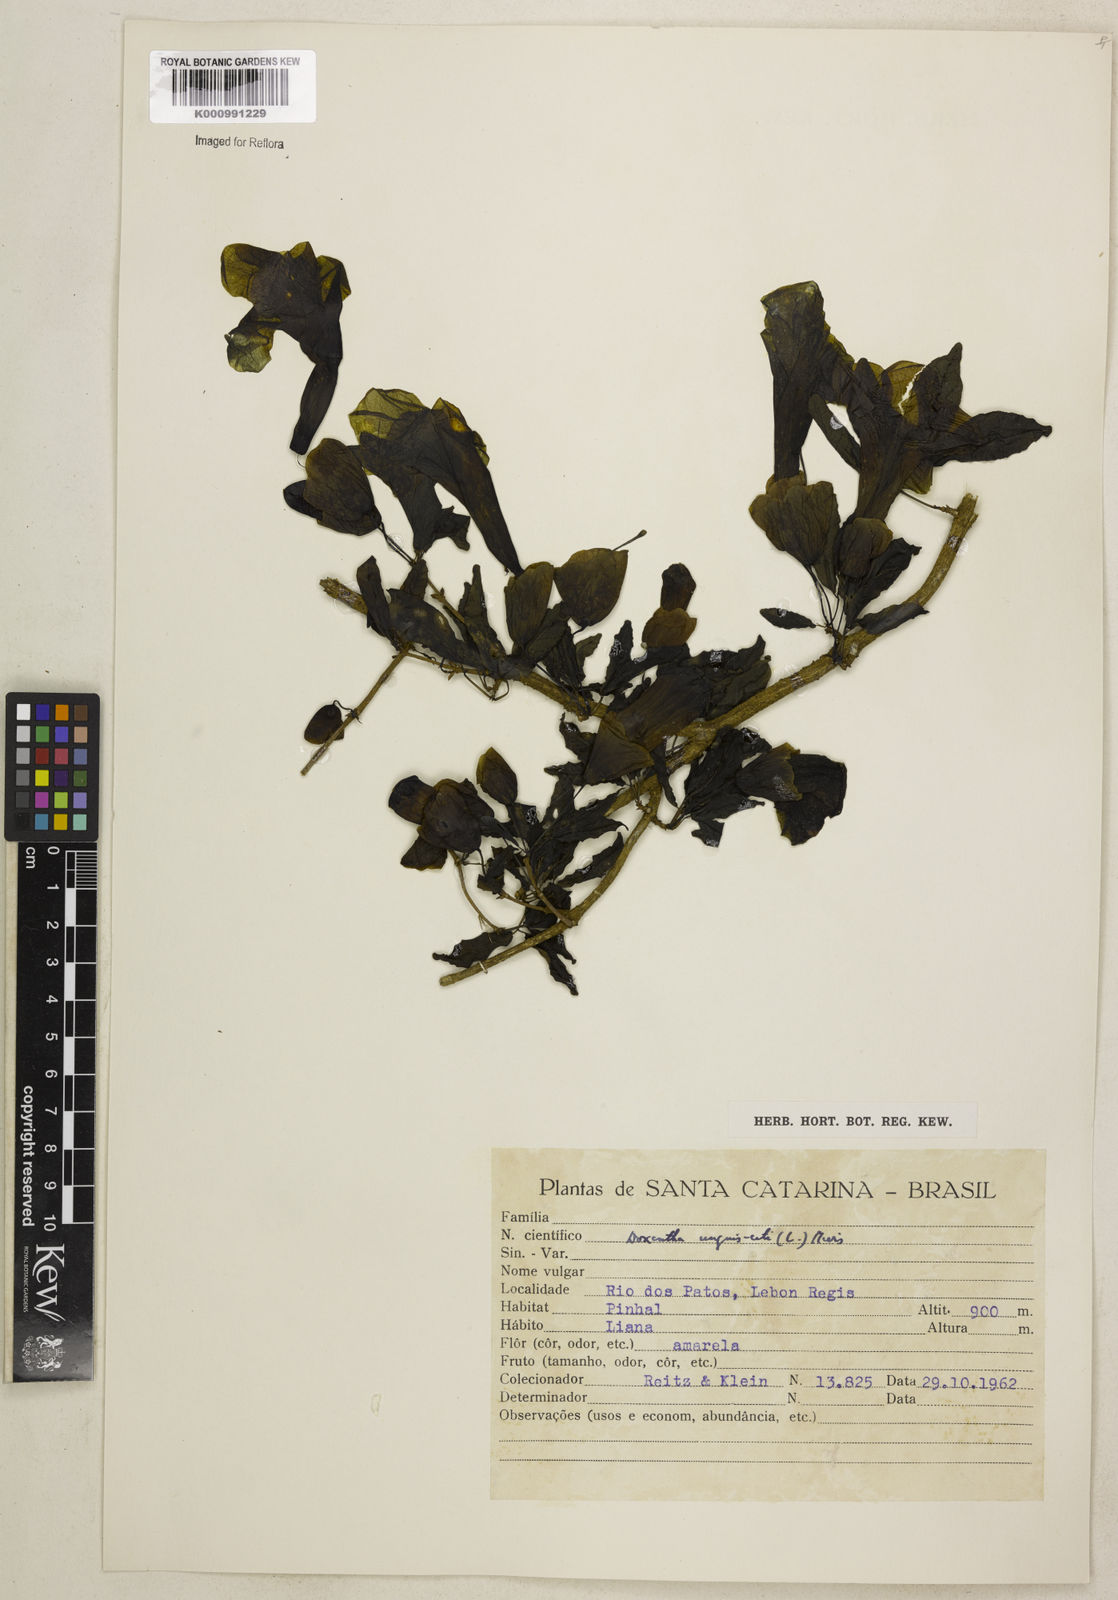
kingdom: Plantae
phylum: Tracheophyta
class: Magnoliopsida
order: Lamiales
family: Bignoniaceae
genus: Dolichandra
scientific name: Dolichandra unguis-cati
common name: Catclaw vine
